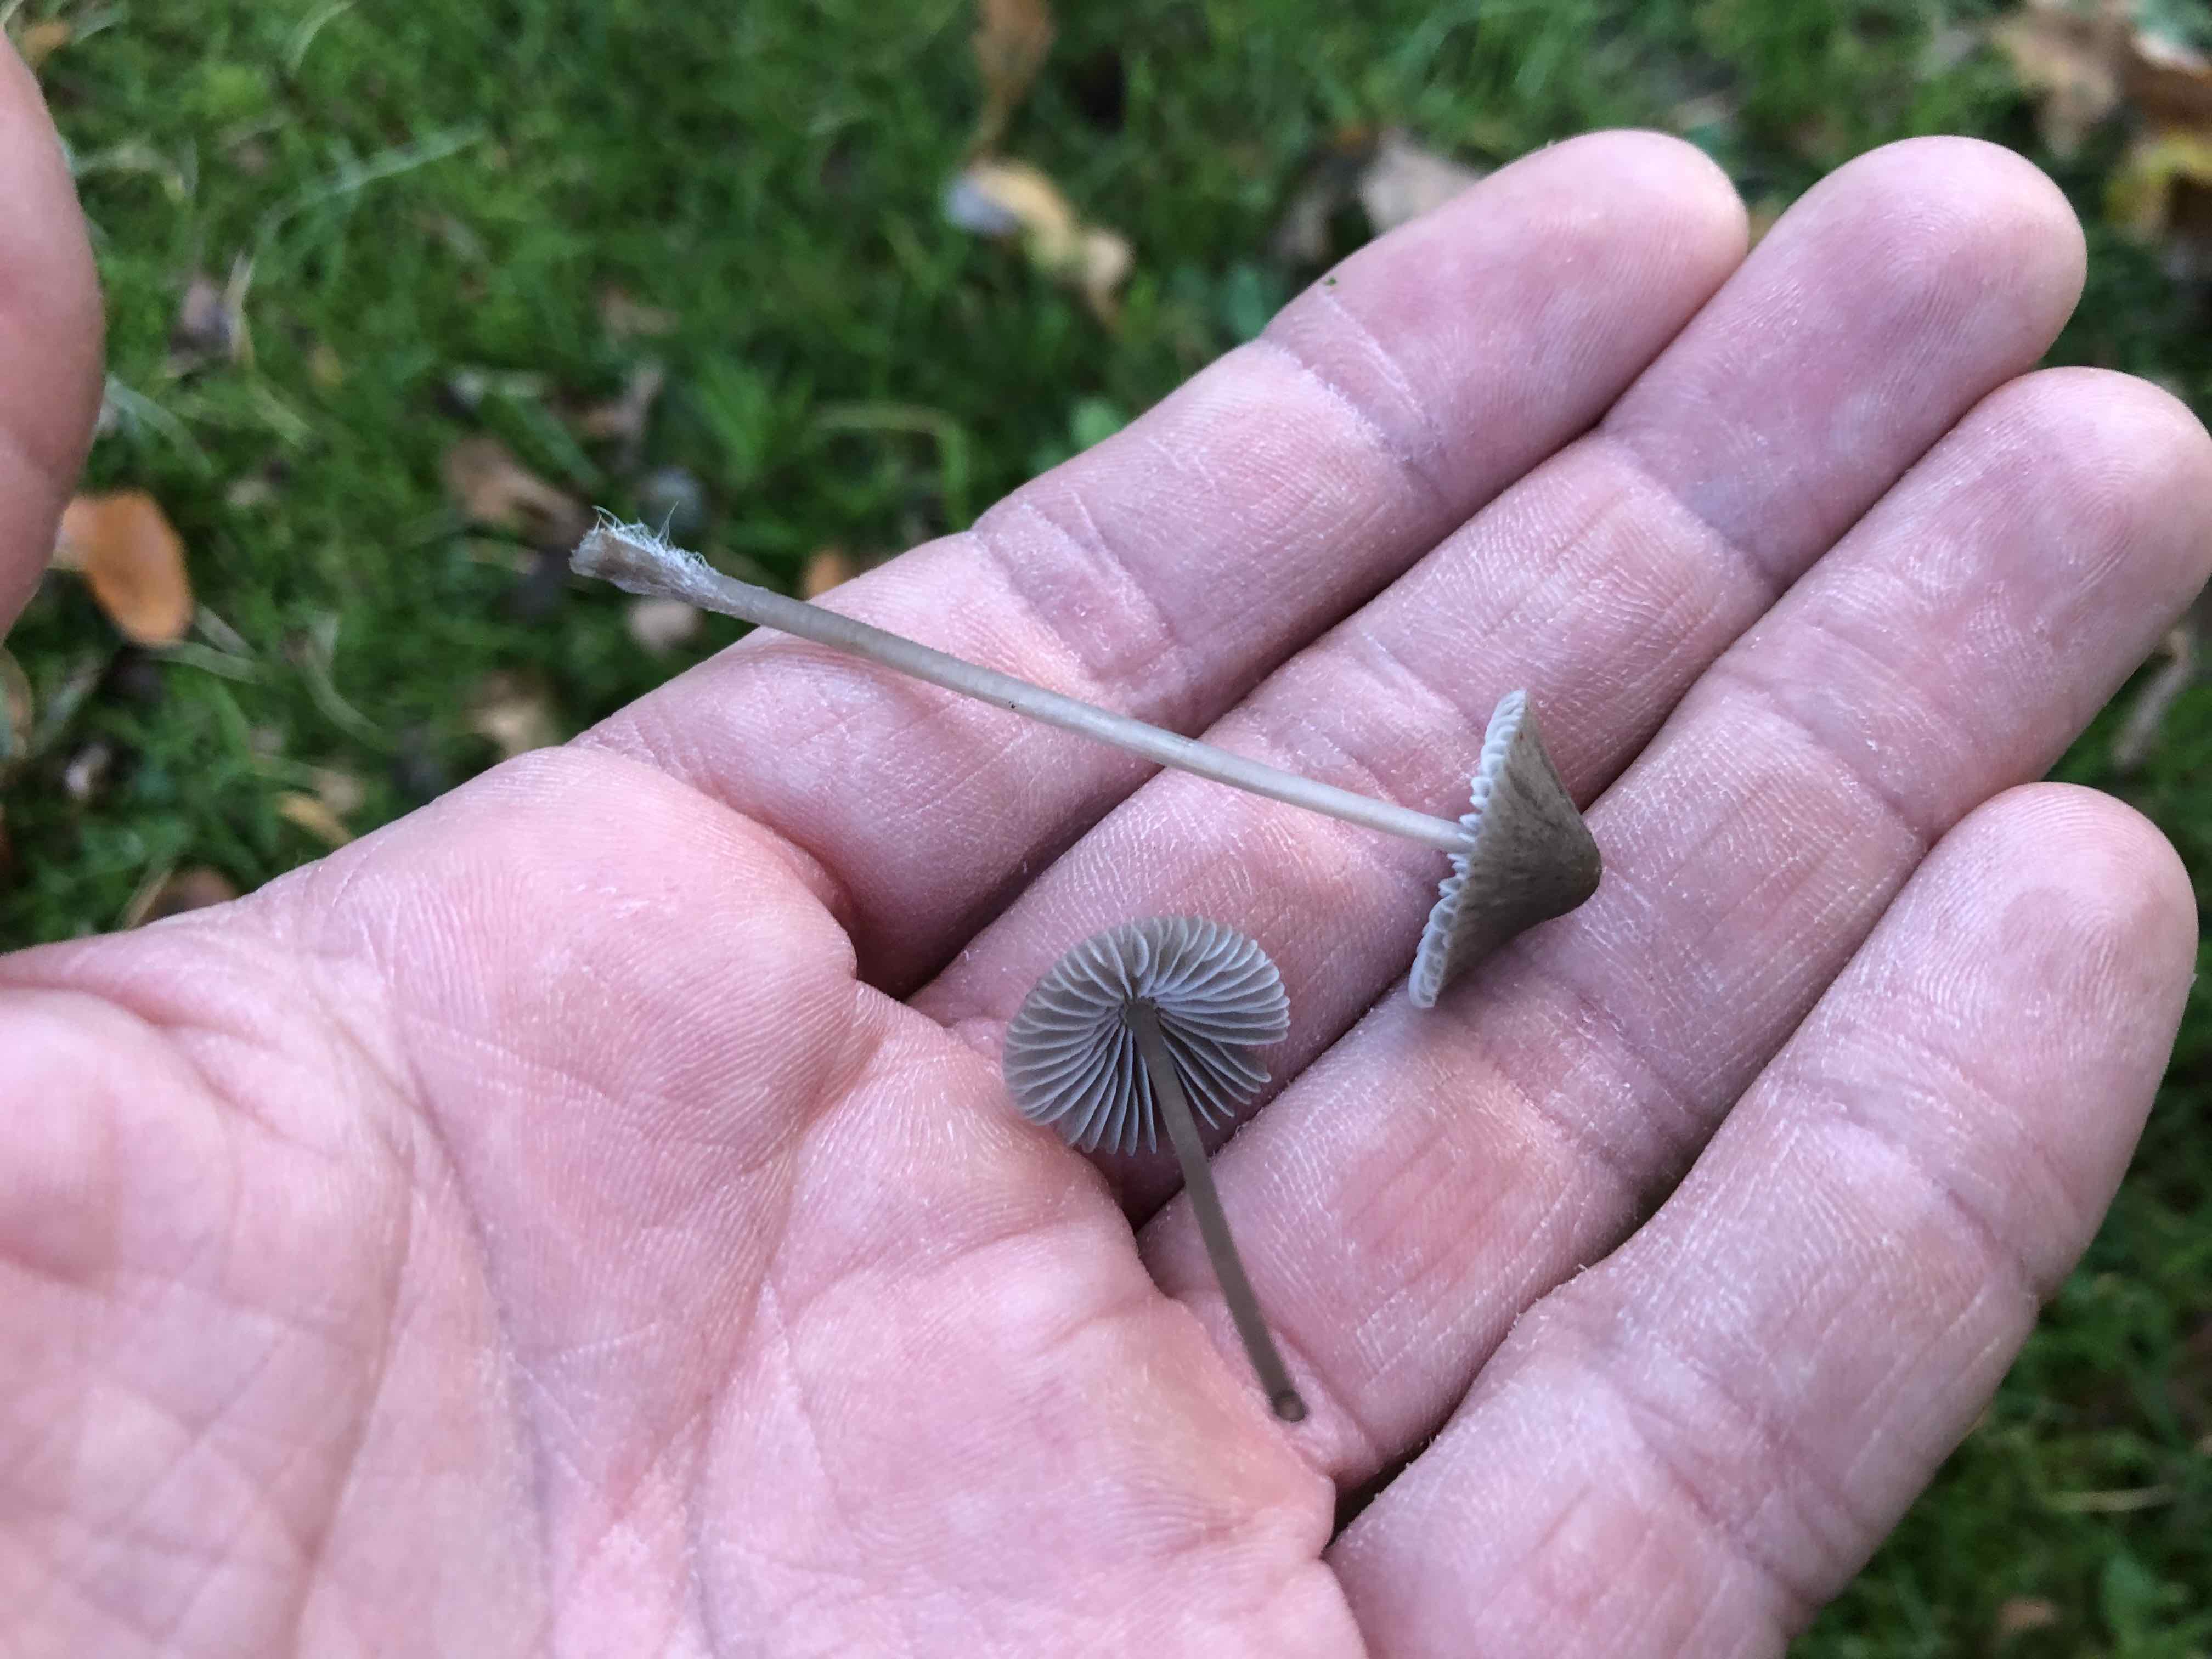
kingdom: Fungi
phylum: Basidiomycota
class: Agaricomycetes
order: Agaricales
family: Mycenaceae
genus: Mycena
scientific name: Mycena
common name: huesvamp
